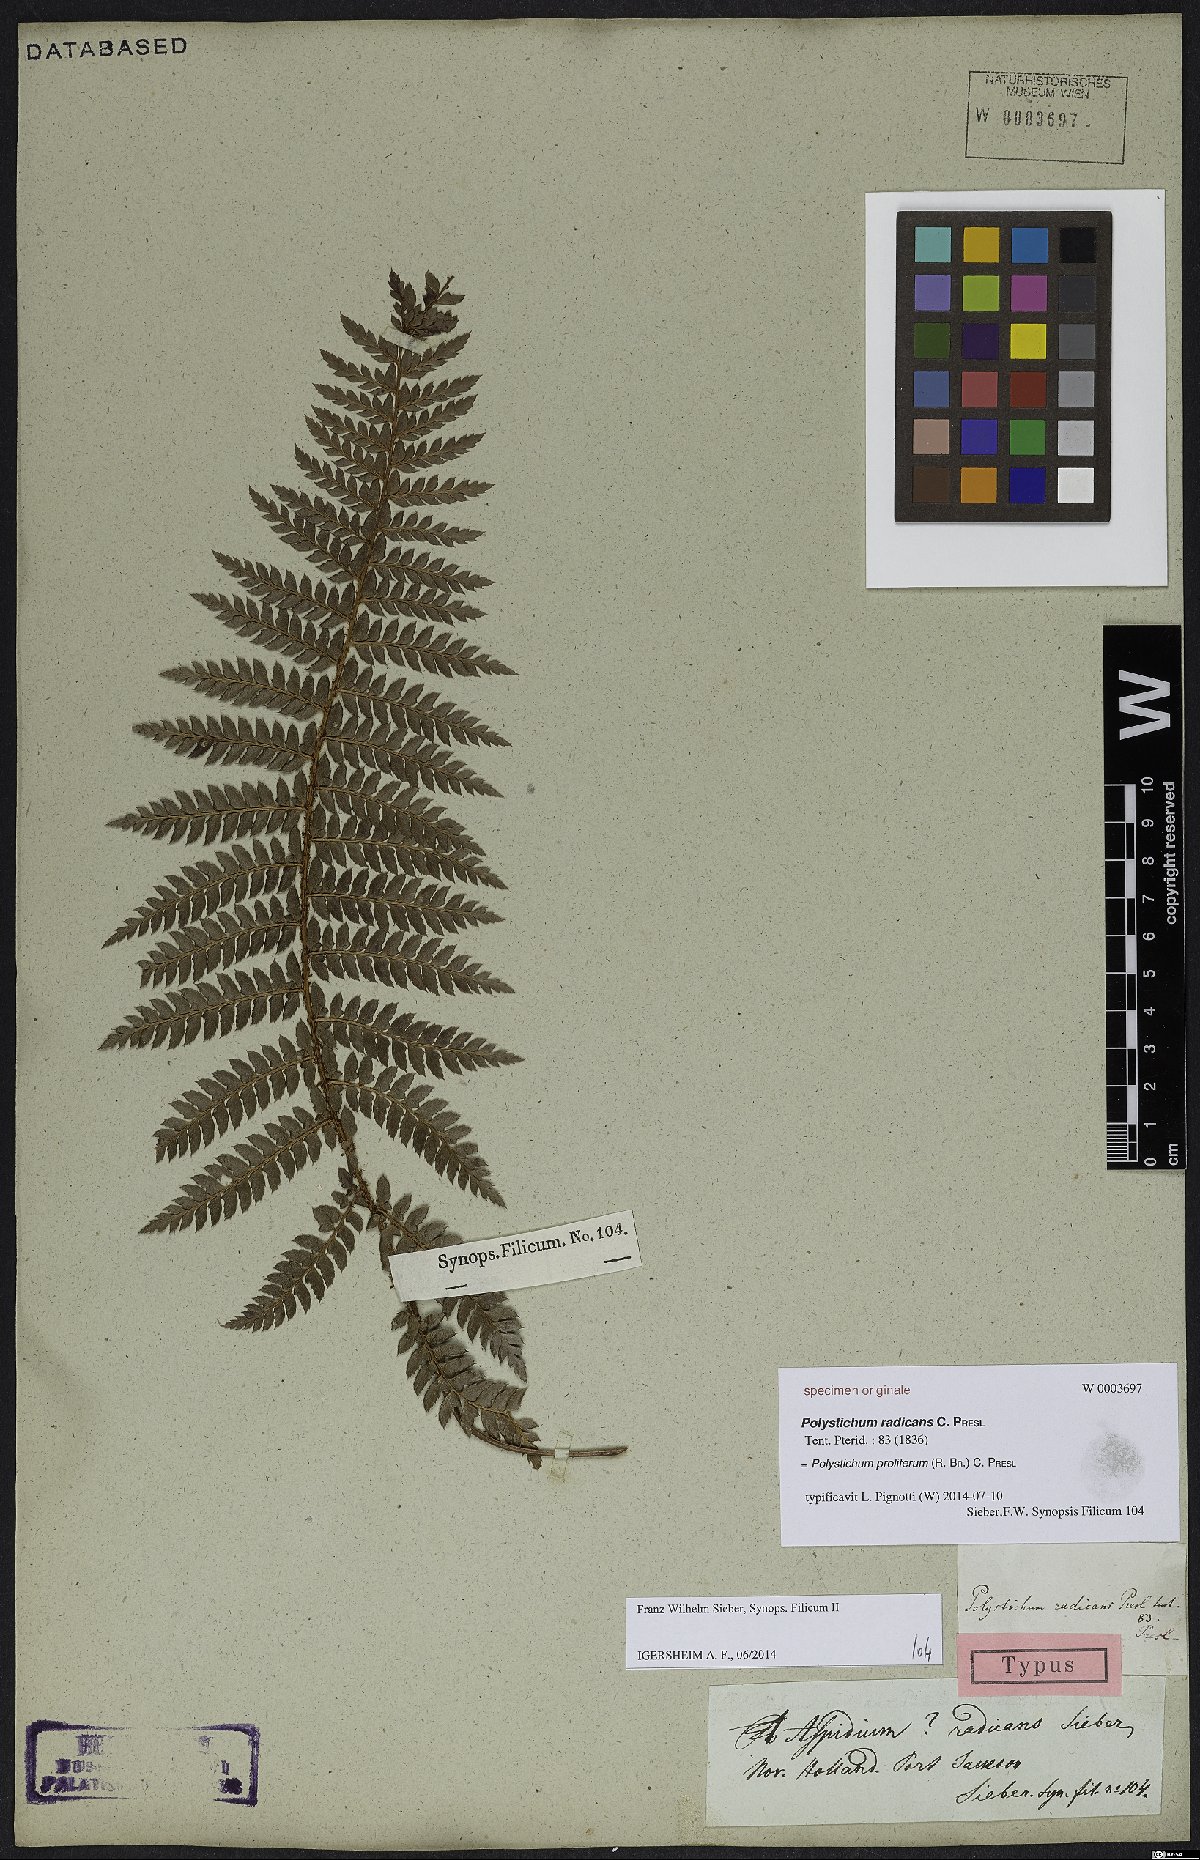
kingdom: Plantae
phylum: Tracheophyta
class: Polypodiopsida
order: Polypodiales
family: Dryopteridaceae
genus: Polystichum
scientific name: Polystichum proliferum
